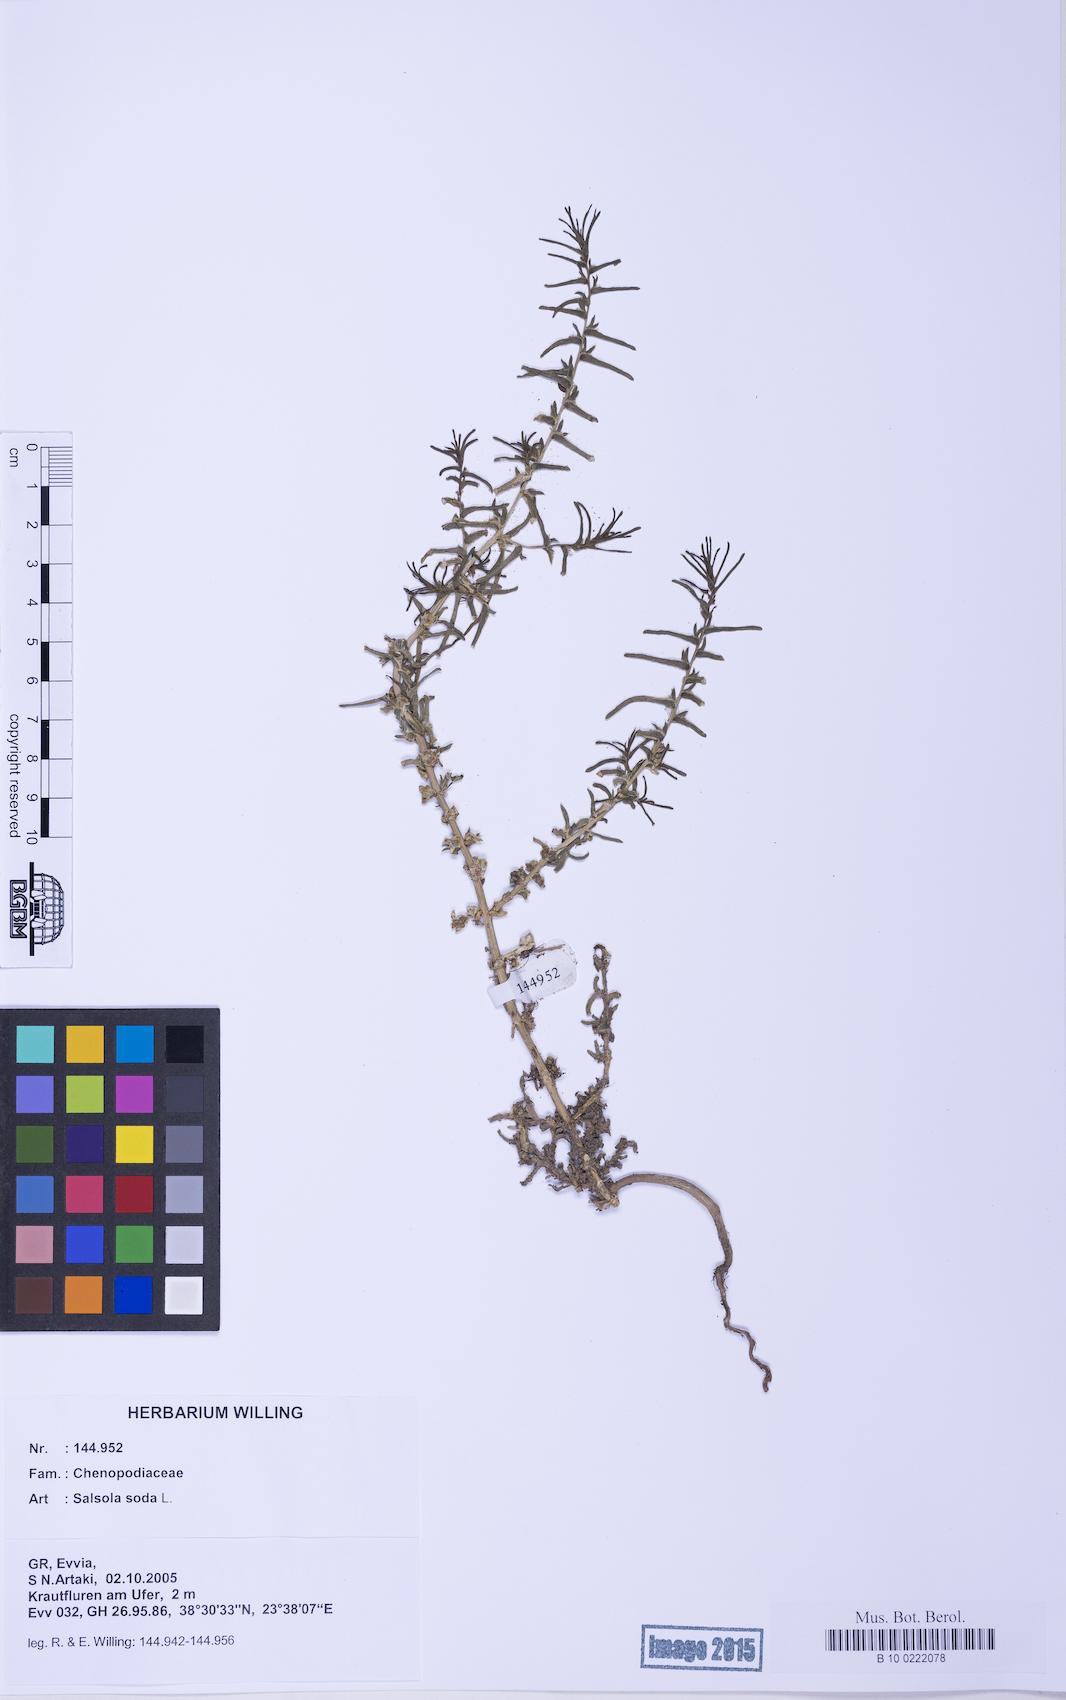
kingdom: Plantae
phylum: Tracheophyta
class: Magnoliopsida
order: Caryophyllales
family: Amaranthaceae
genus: Soda
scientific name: Soda inermis
